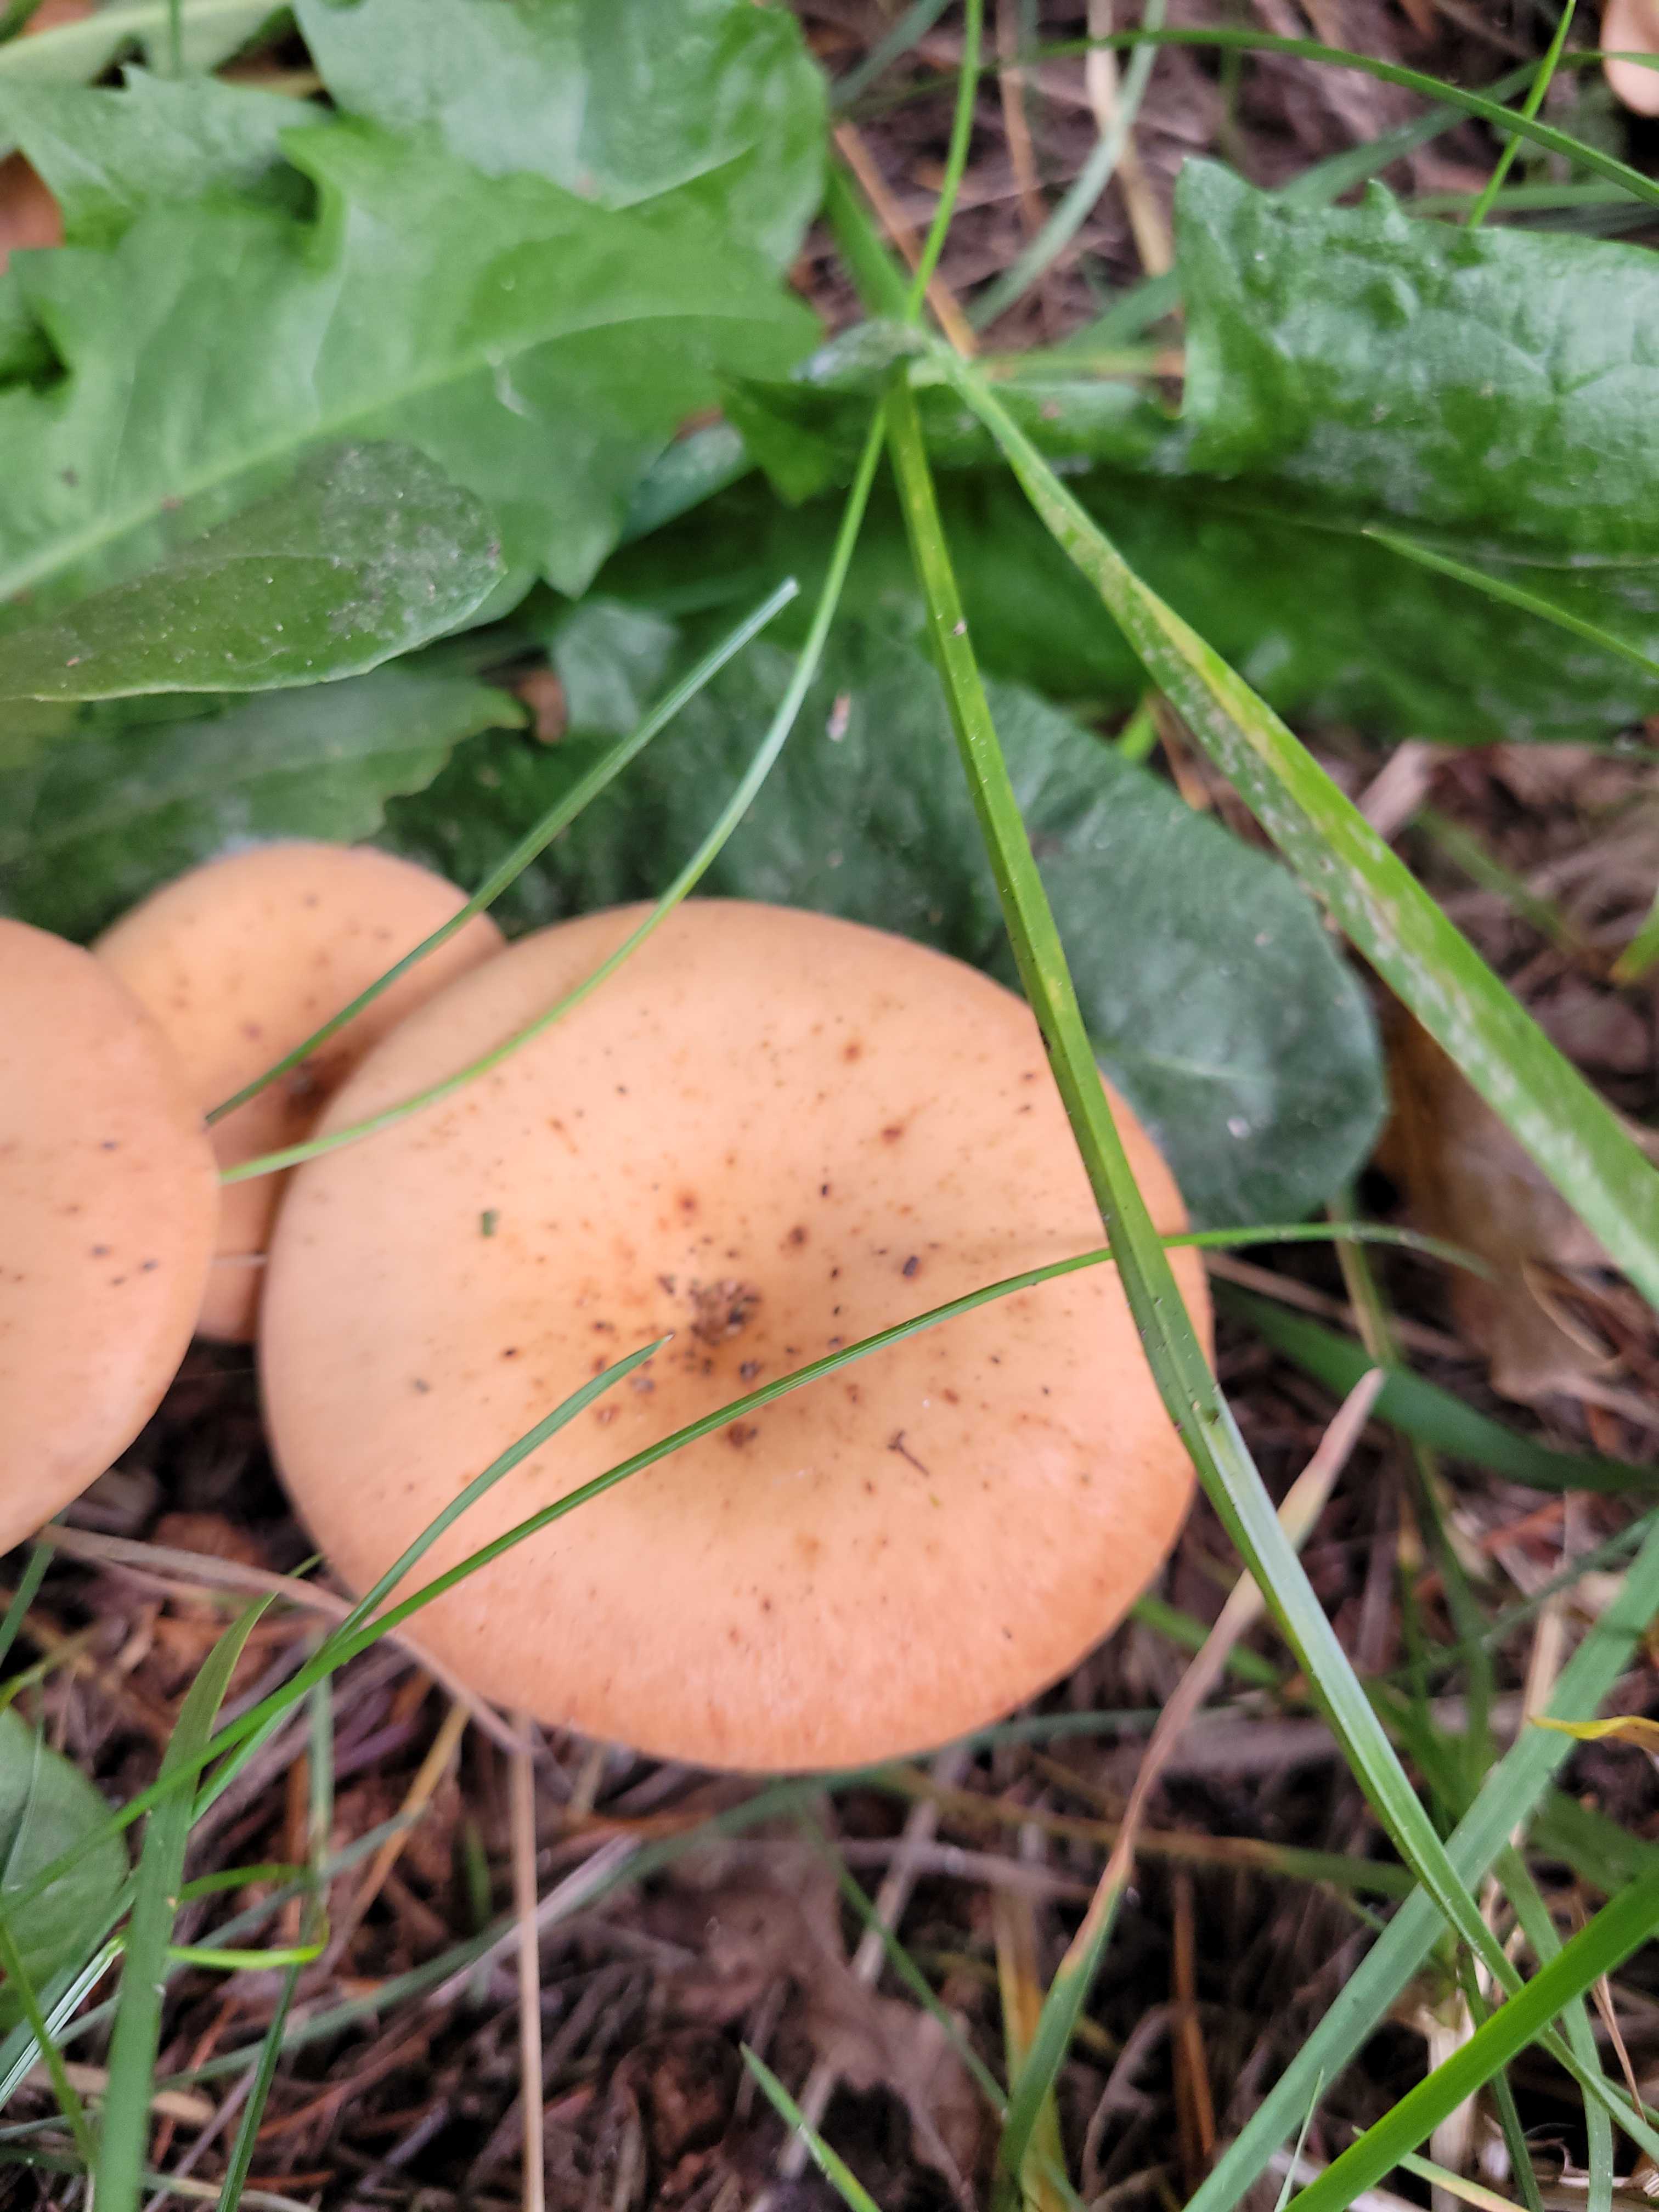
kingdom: Fungi
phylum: Basidiomycota
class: Agaricomycetes
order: Agaricales
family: Tricholomataceae
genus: Paralepista
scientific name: Paralepista flaccida
